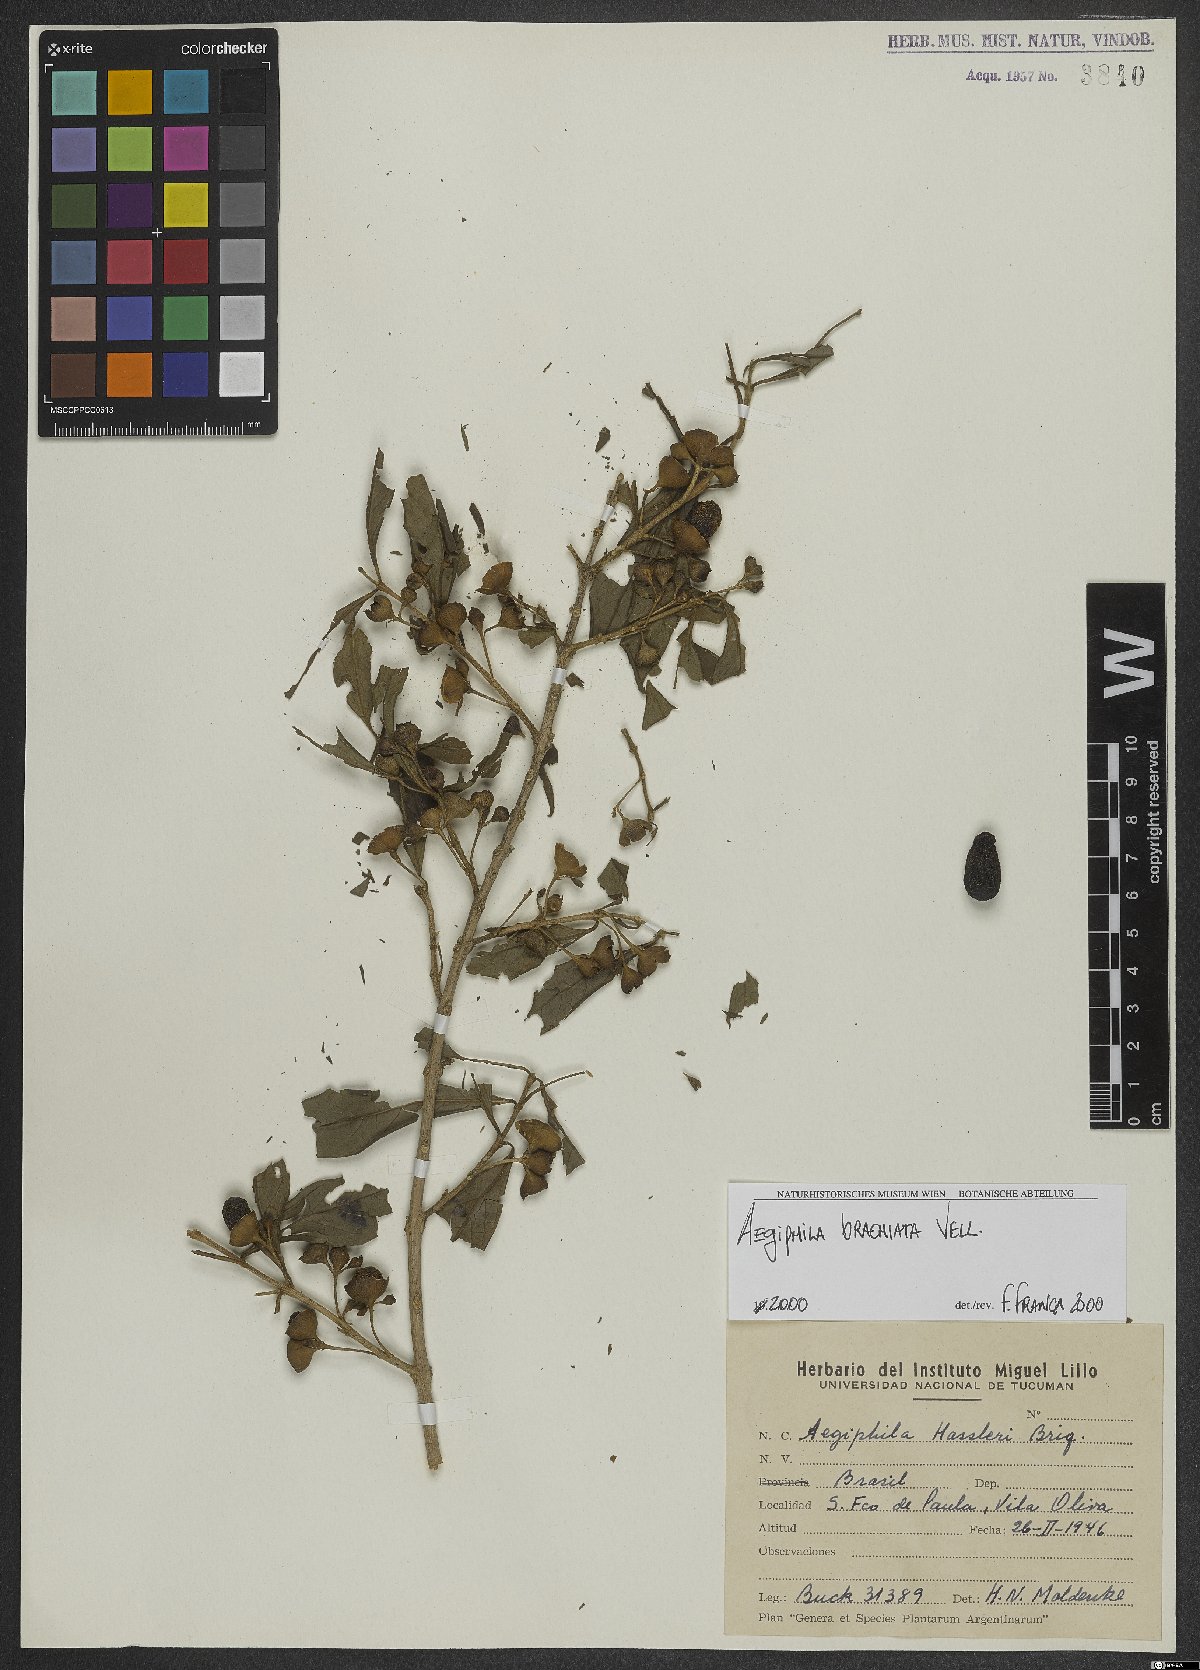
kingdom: Plantae
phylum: Tracheophyta
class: Magnoliopsida
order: Lamiales
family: Lamiaceae
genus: Aegiphila
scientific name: Aegiphila brachiata
